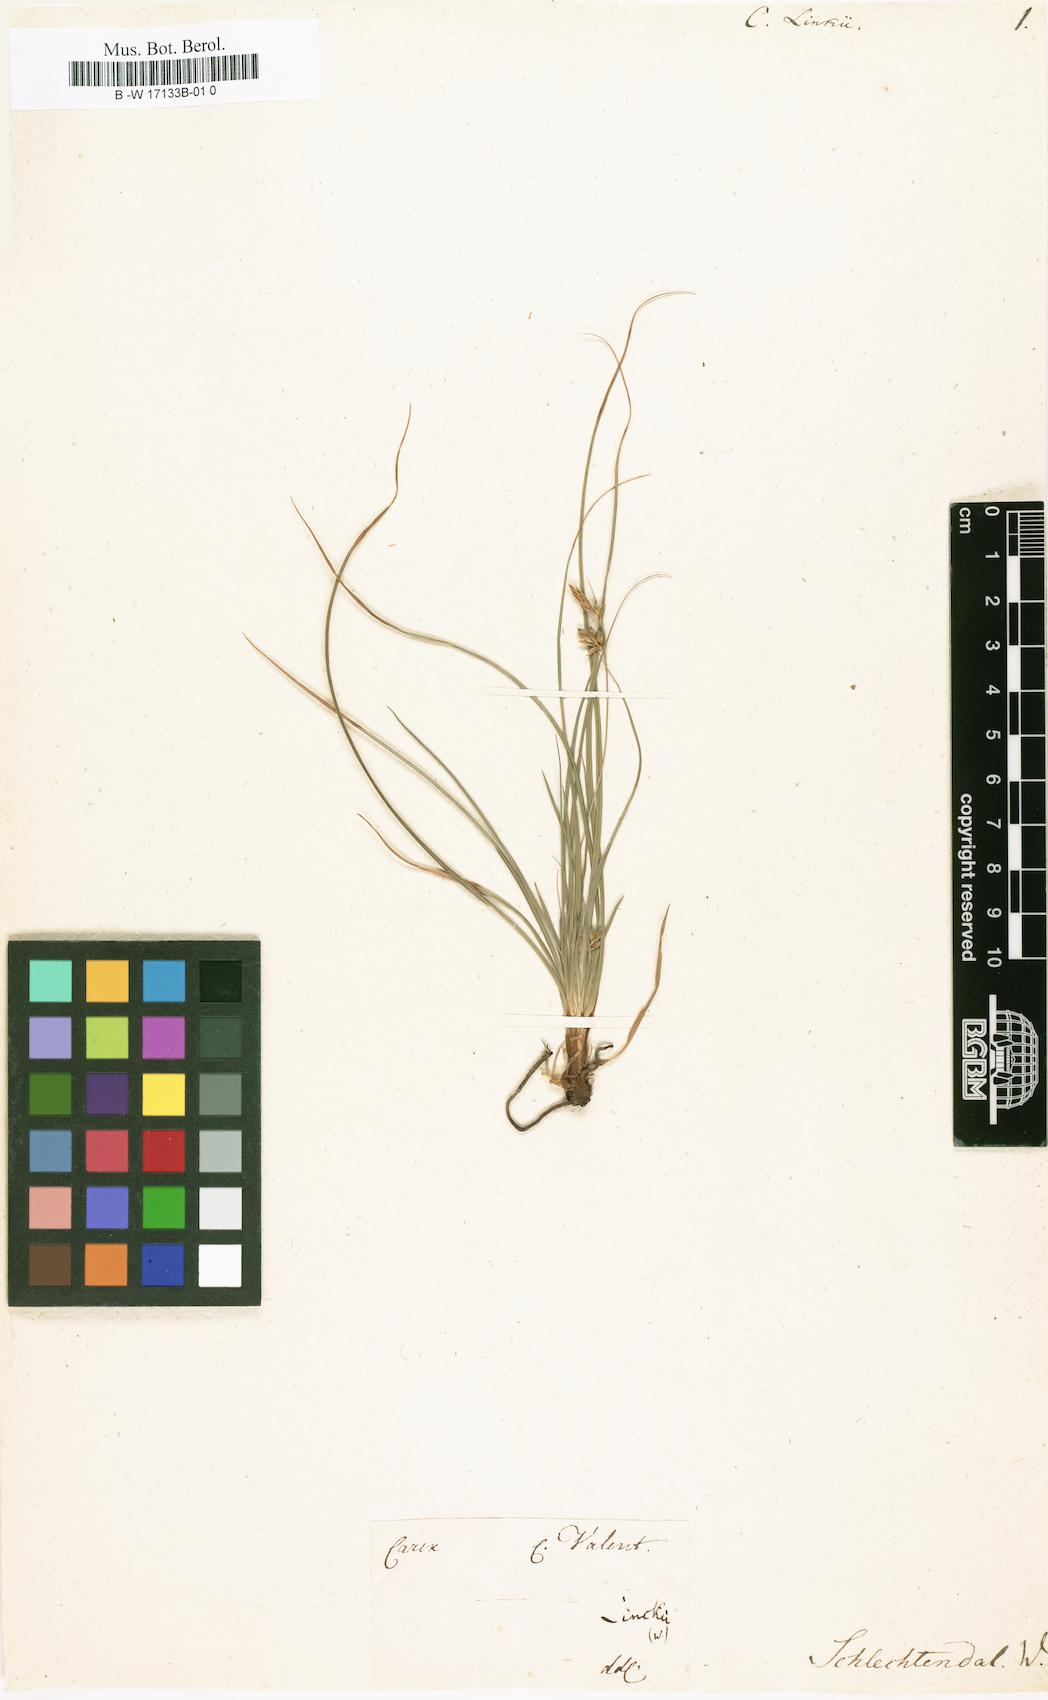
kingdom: Plantae
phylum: Tracheophyta
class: Liliopsida
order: Poales
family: Cyperaceae
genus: Carex
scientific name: Carex distachya
